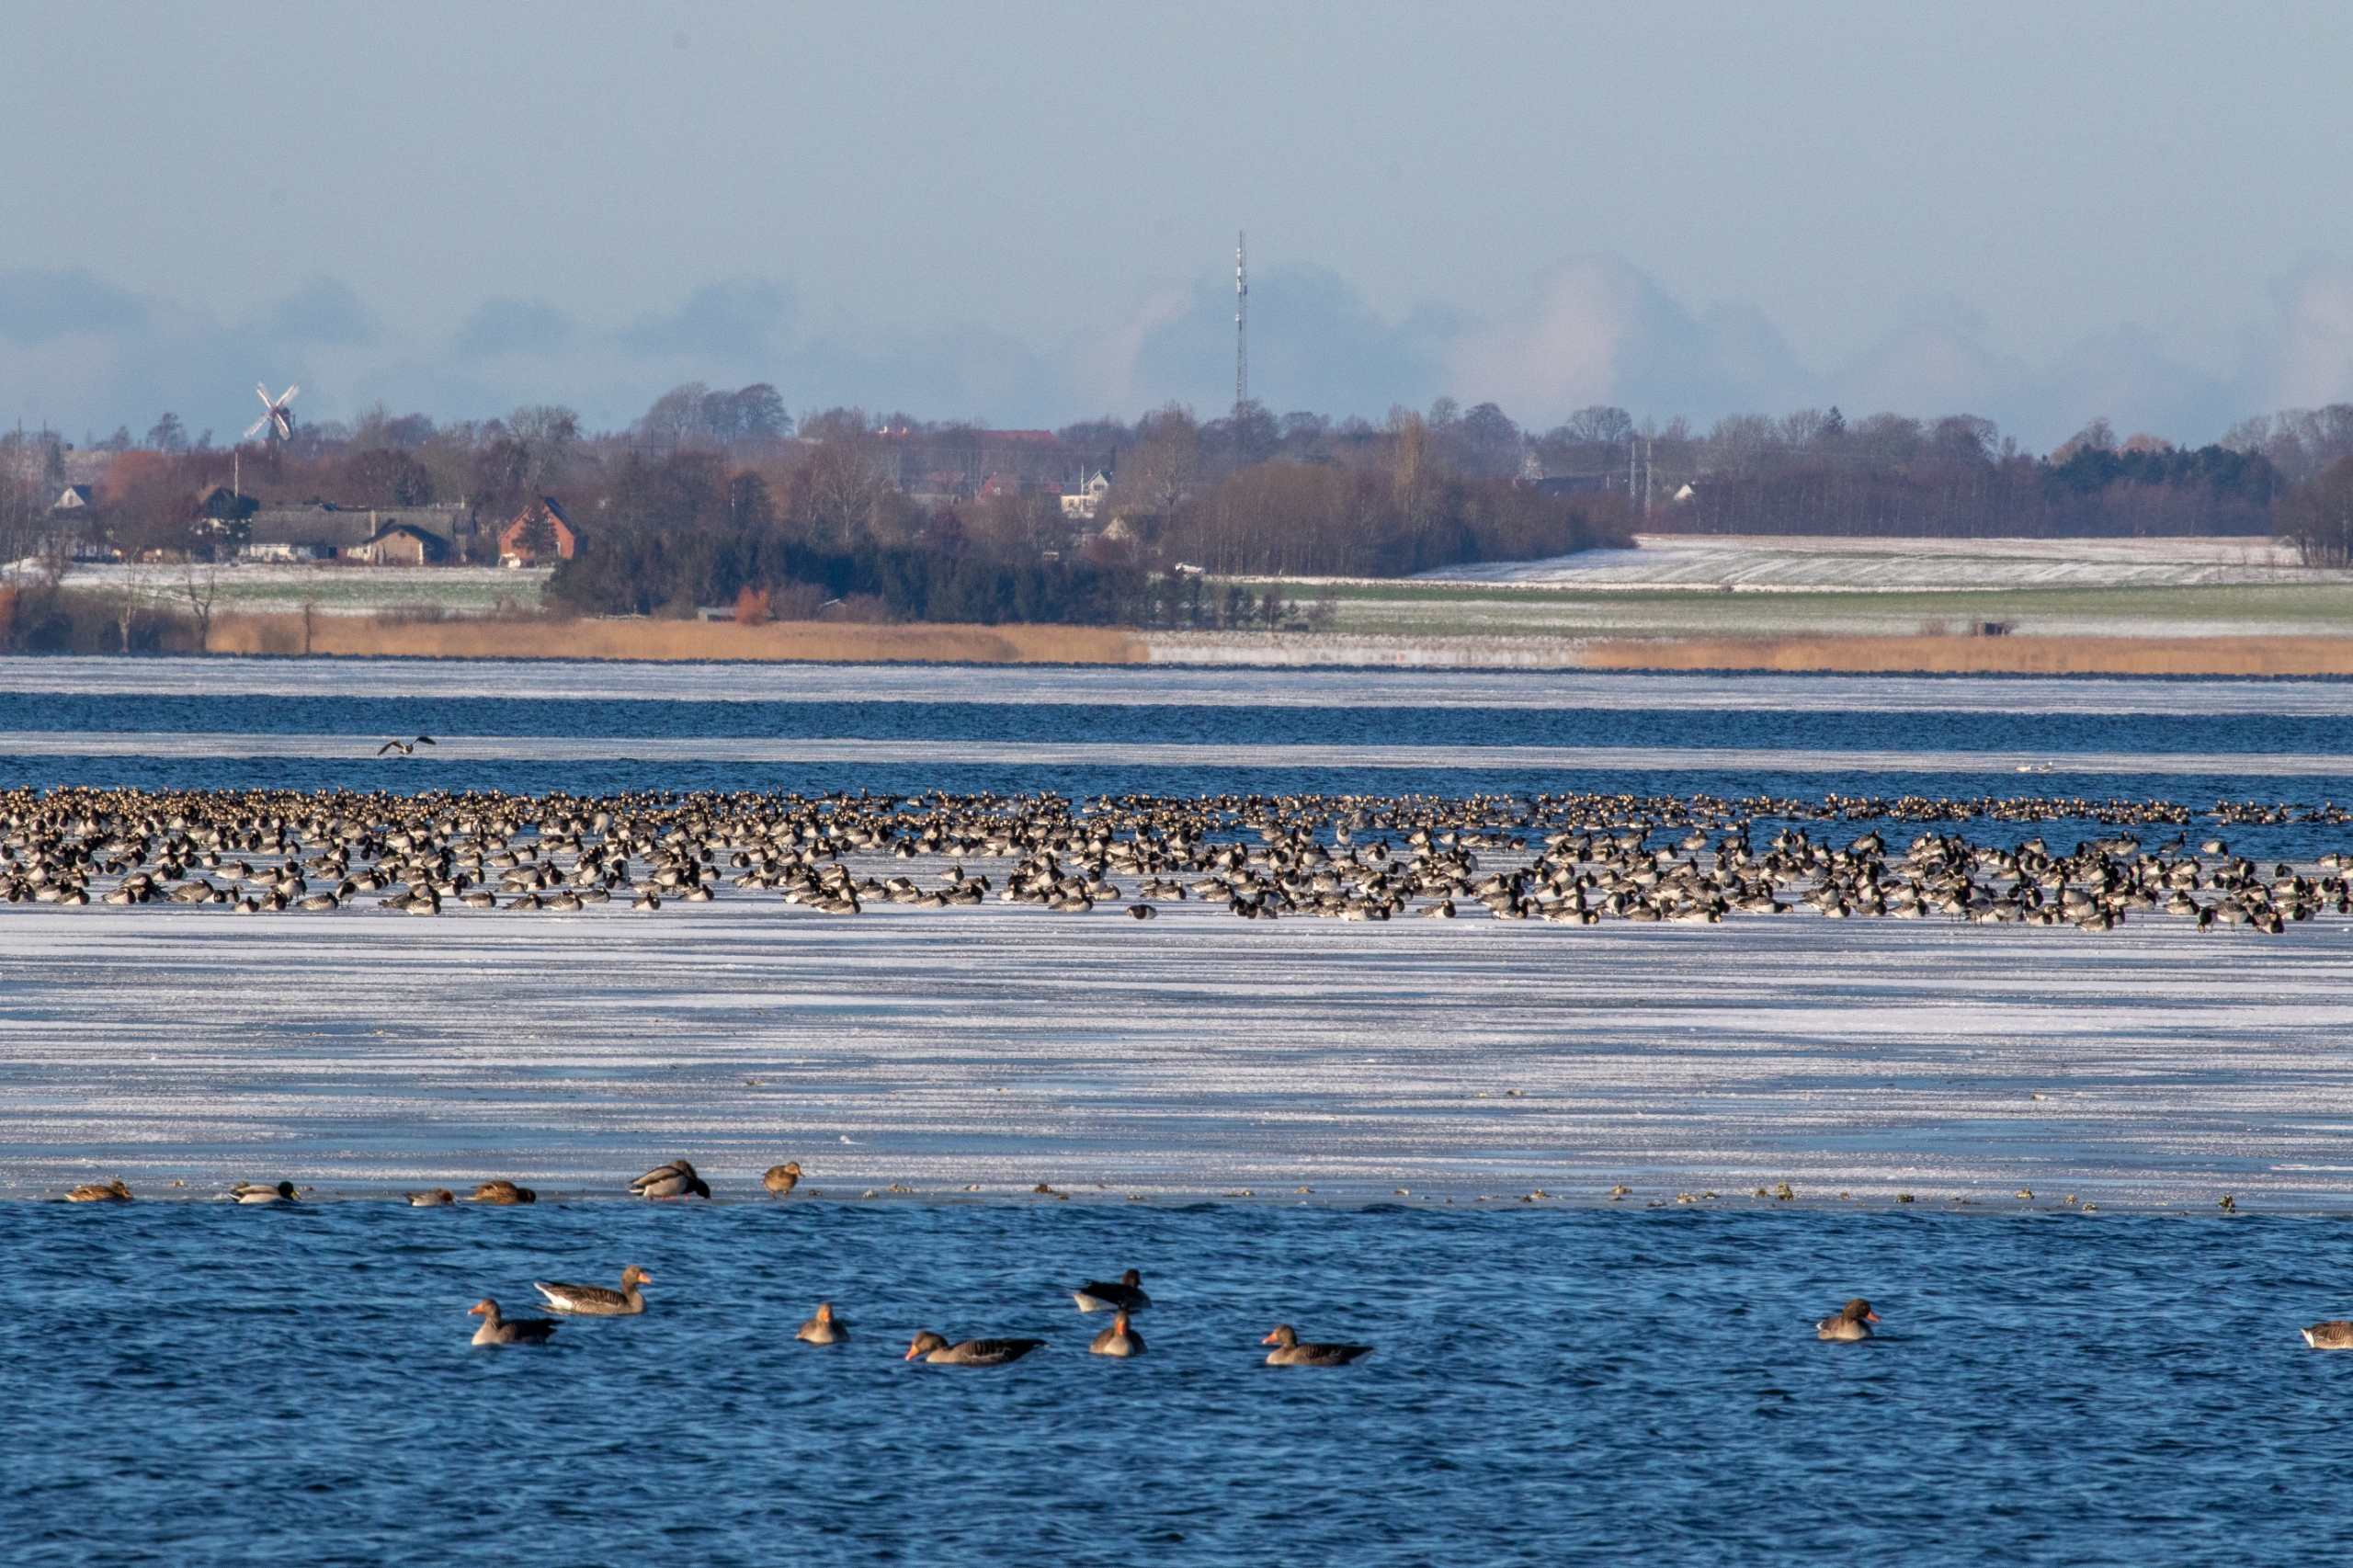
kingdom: Animalia
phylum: Chordata
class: Aves
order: Anseriformes
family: Anatidae
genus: Branta
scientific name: Branta leucopsis
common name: Bramgås
